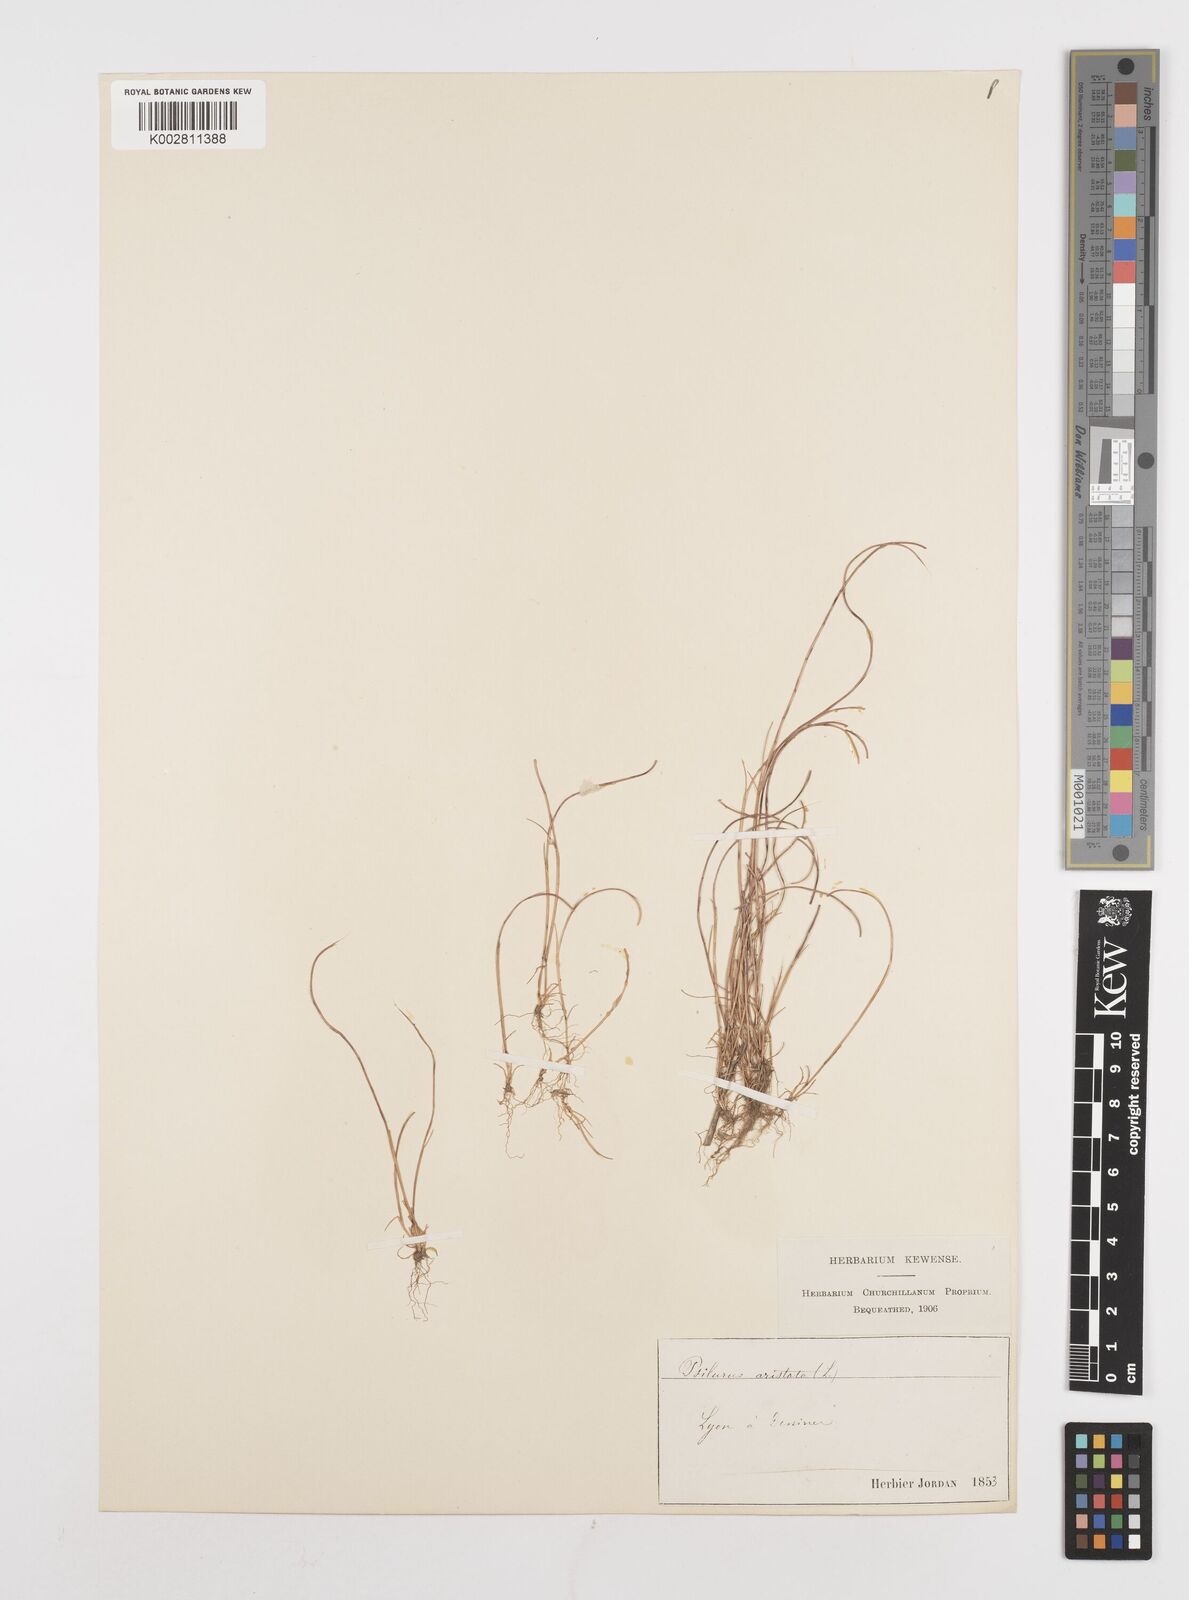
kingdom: Plantae
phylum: Tracheophyta
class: Liliopsida
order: Poales
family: Poaceae
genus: Festuca
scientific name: Festuca incurva
